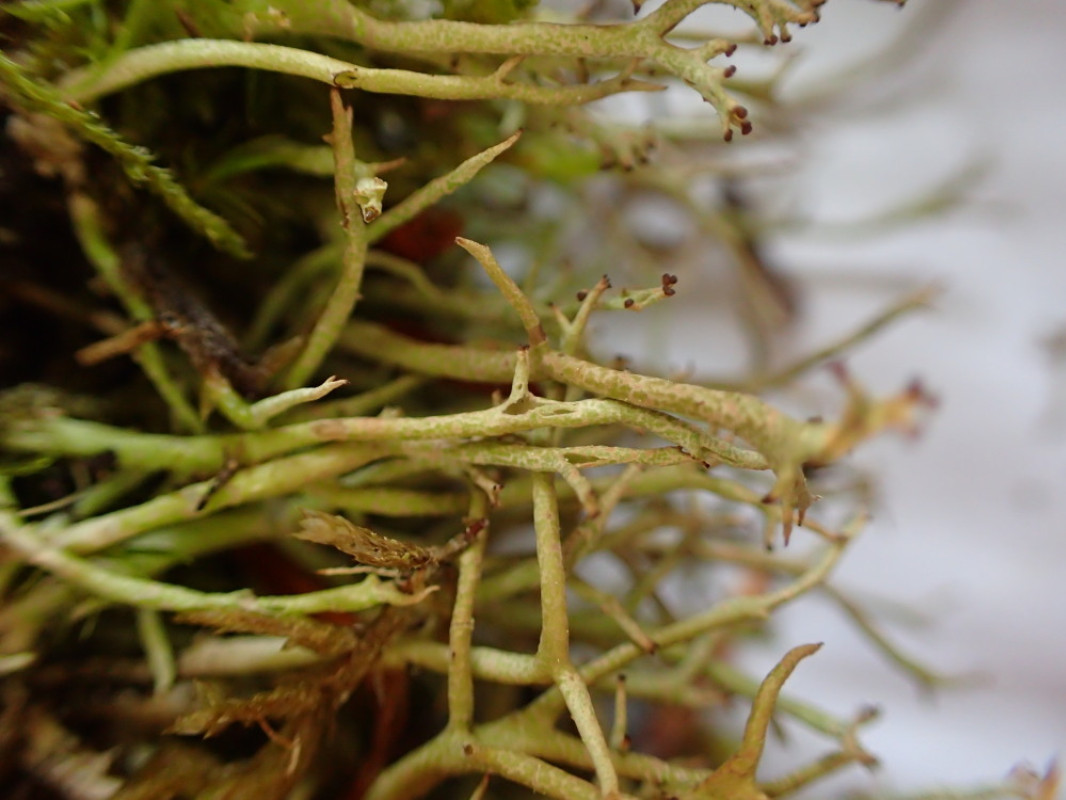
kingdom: Fungi
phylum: Ascomycota
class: Lecanoromycetes
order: Lecanorales
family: Cladoniaceae
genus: Cladonia
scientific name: Cladonia furcata
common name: kløftet bægerlav
